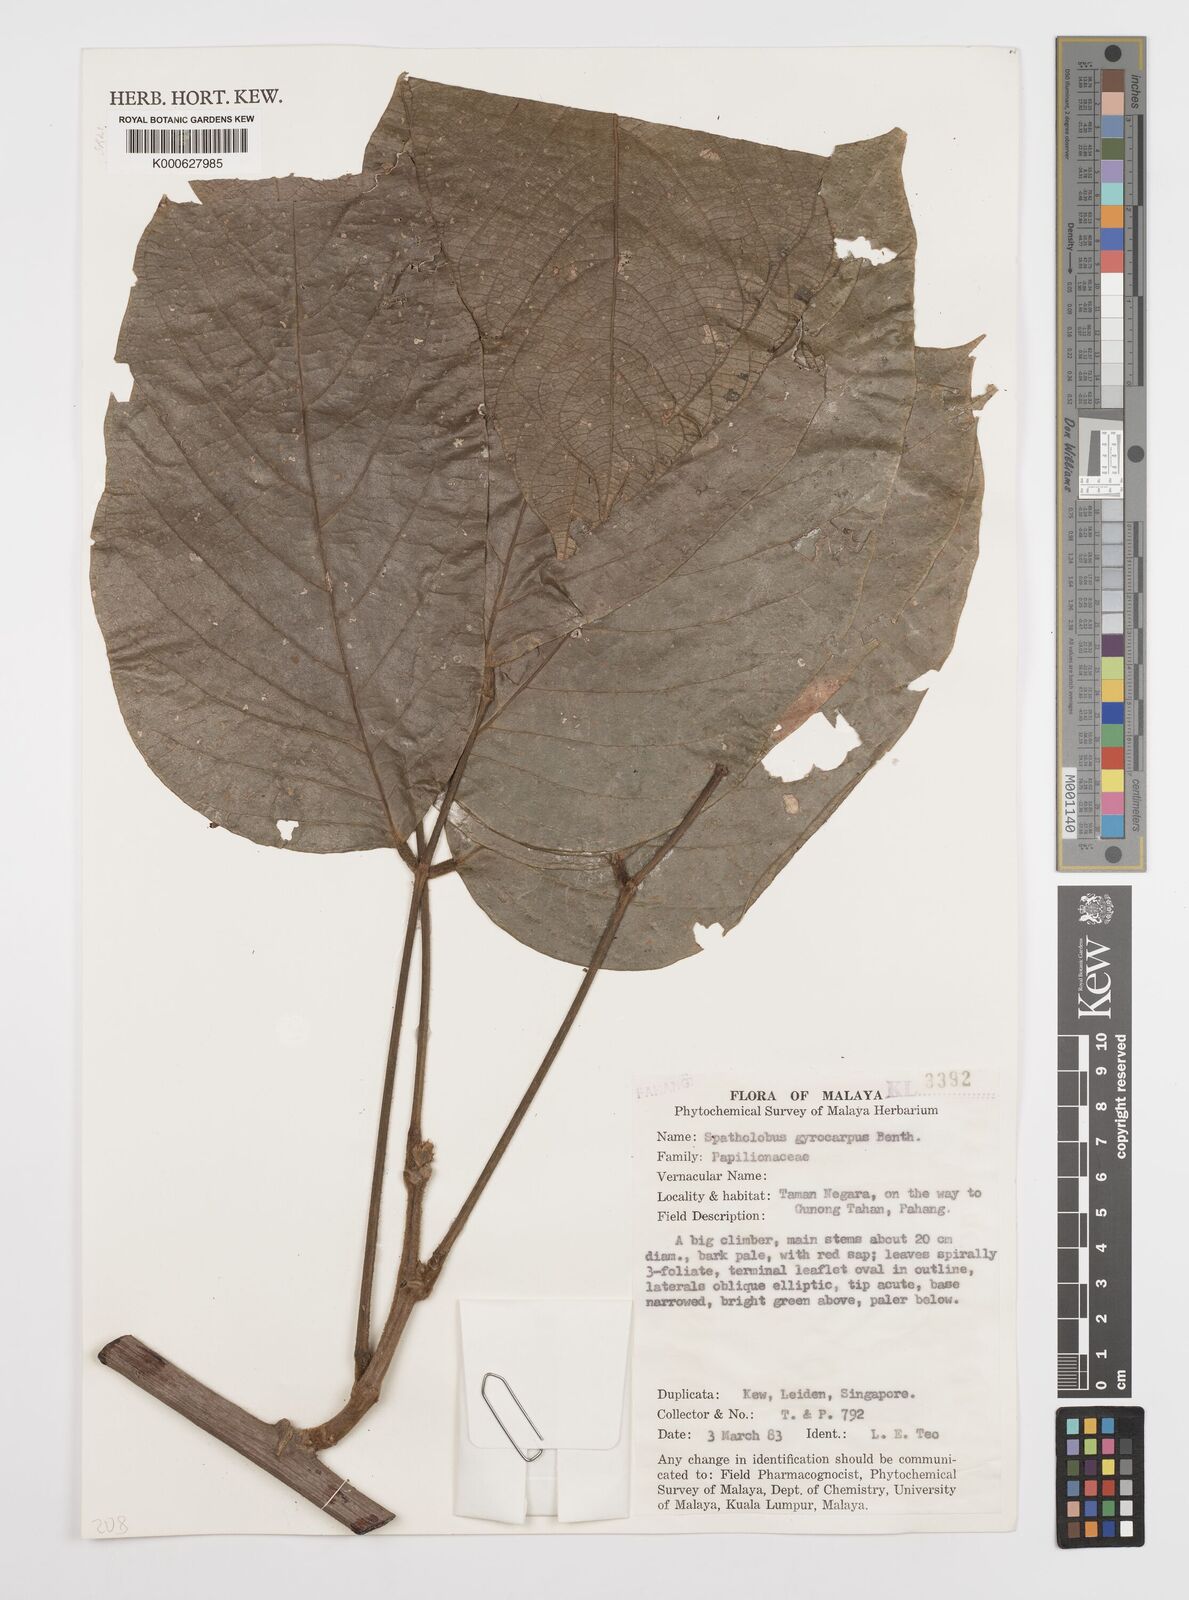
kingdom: Plantae
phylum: Tracheophyta
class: Magnoliopsida
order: Fabales
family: Fabaceae
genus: Spatholobus
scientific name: Spatholobus gyrocarpus
